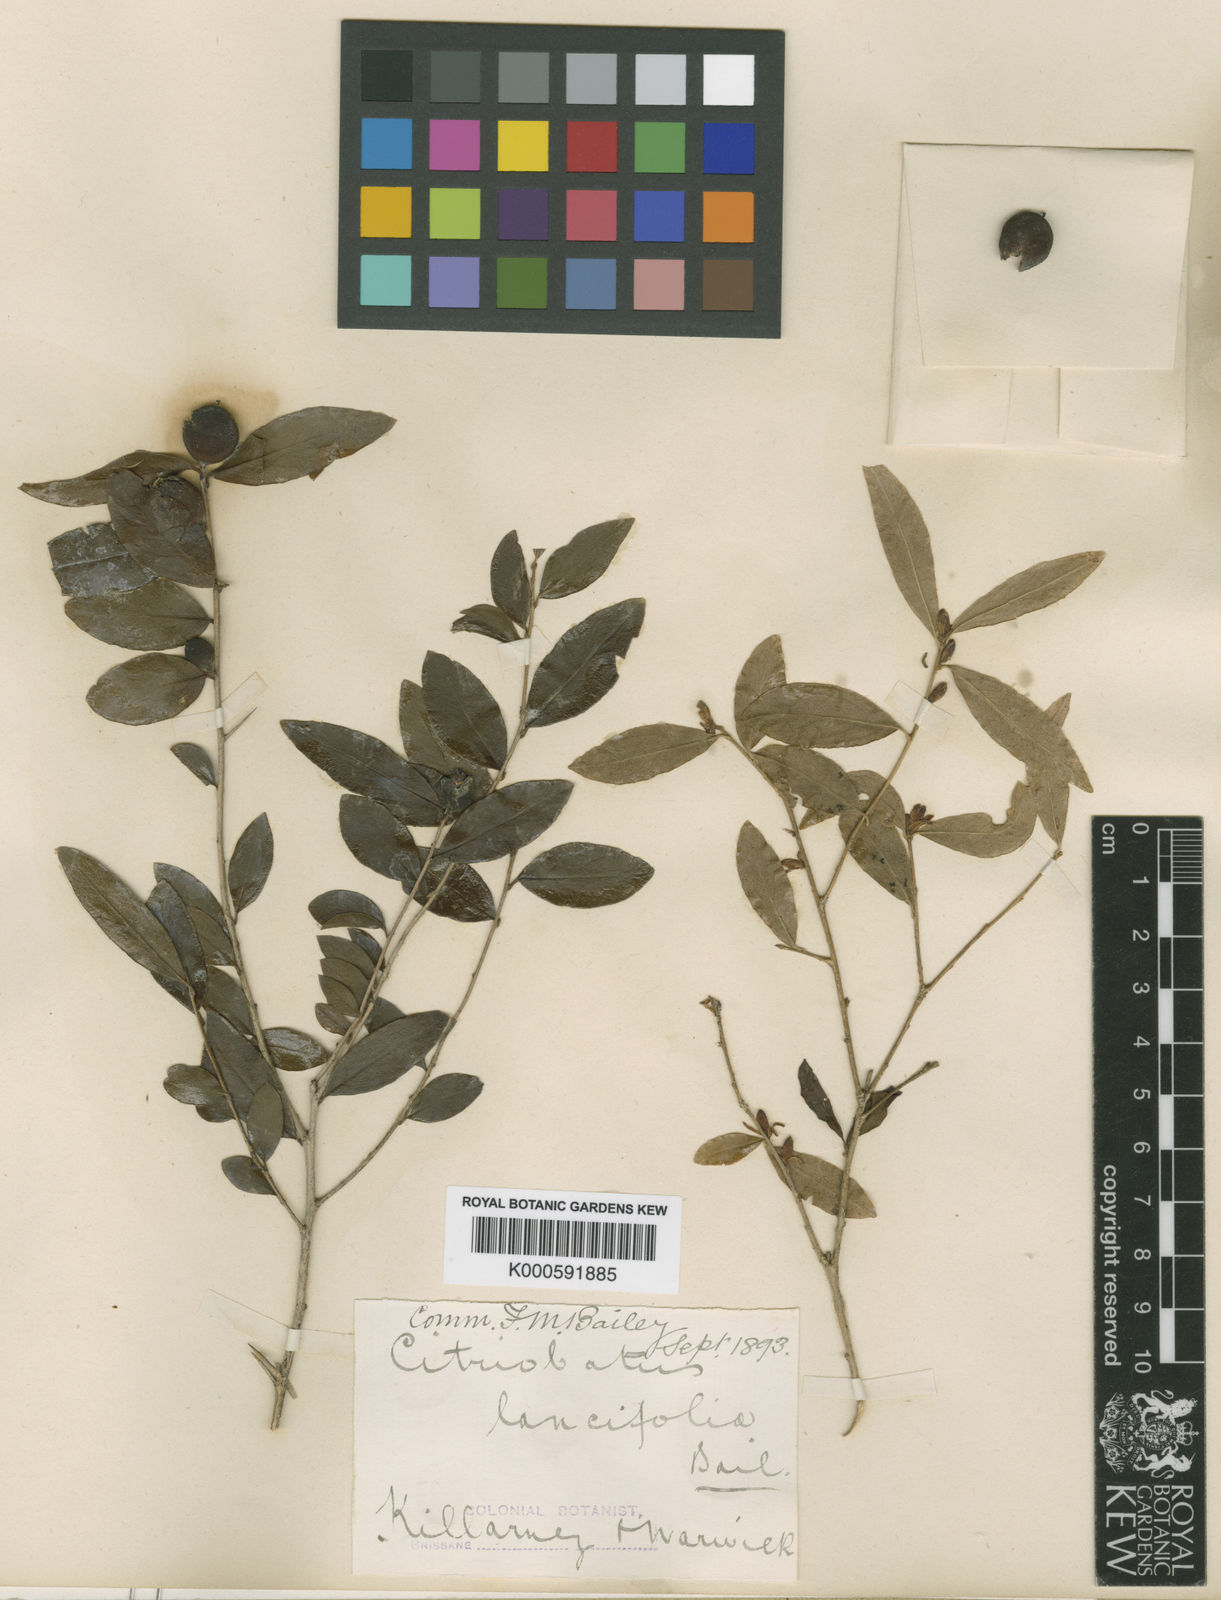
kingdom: Plantae
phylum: Tracheophyta
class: Magnoliopsida
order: Apiales
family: Pittosporaceae
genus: Pittosporum
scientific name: Pittosporum lancifolium
